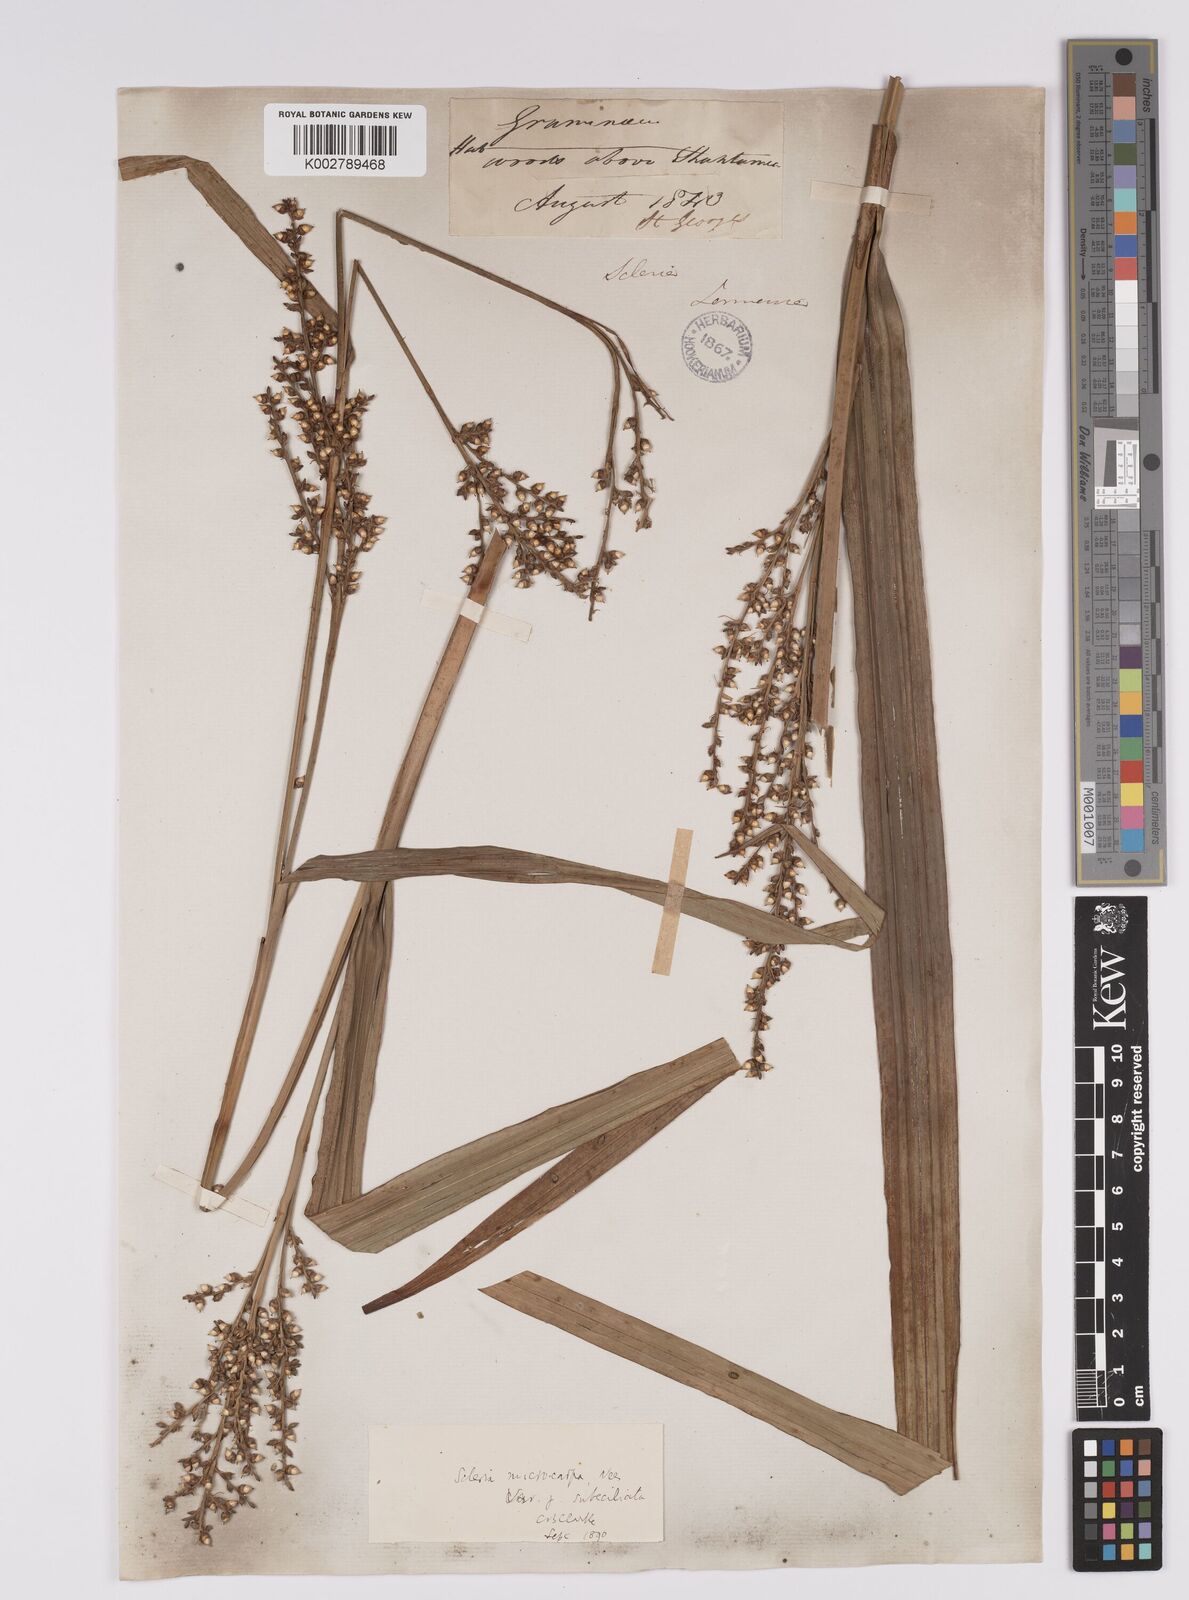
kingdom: Plantae
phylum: Tracheophyta
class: Liliopsida
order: Poales
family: Cyperaceae
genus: Scleria
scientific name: Scleria mucronata
